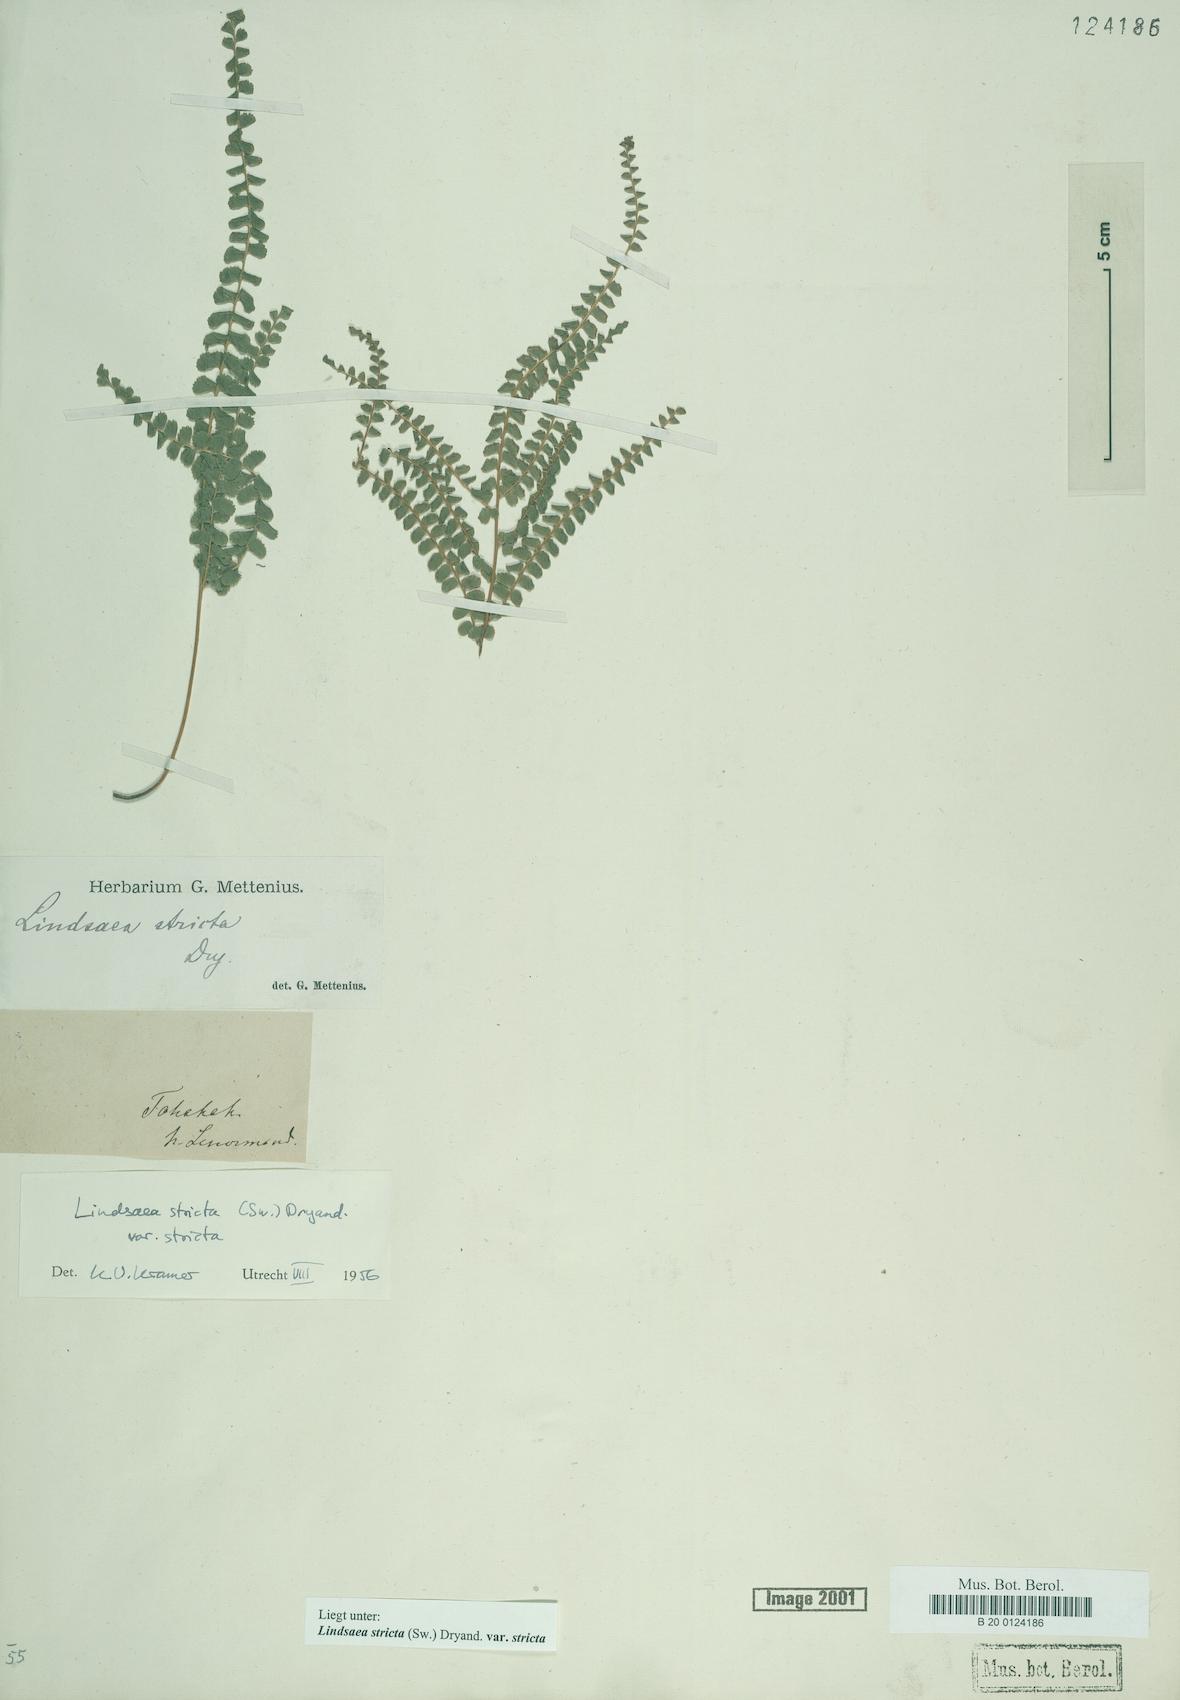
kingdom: Plantae
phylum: Tracheophyta
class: Polypodiopsida
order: Polypodiales
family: Lindsaeaceae
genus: Lindsaea
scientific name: Lindsaea stricta
